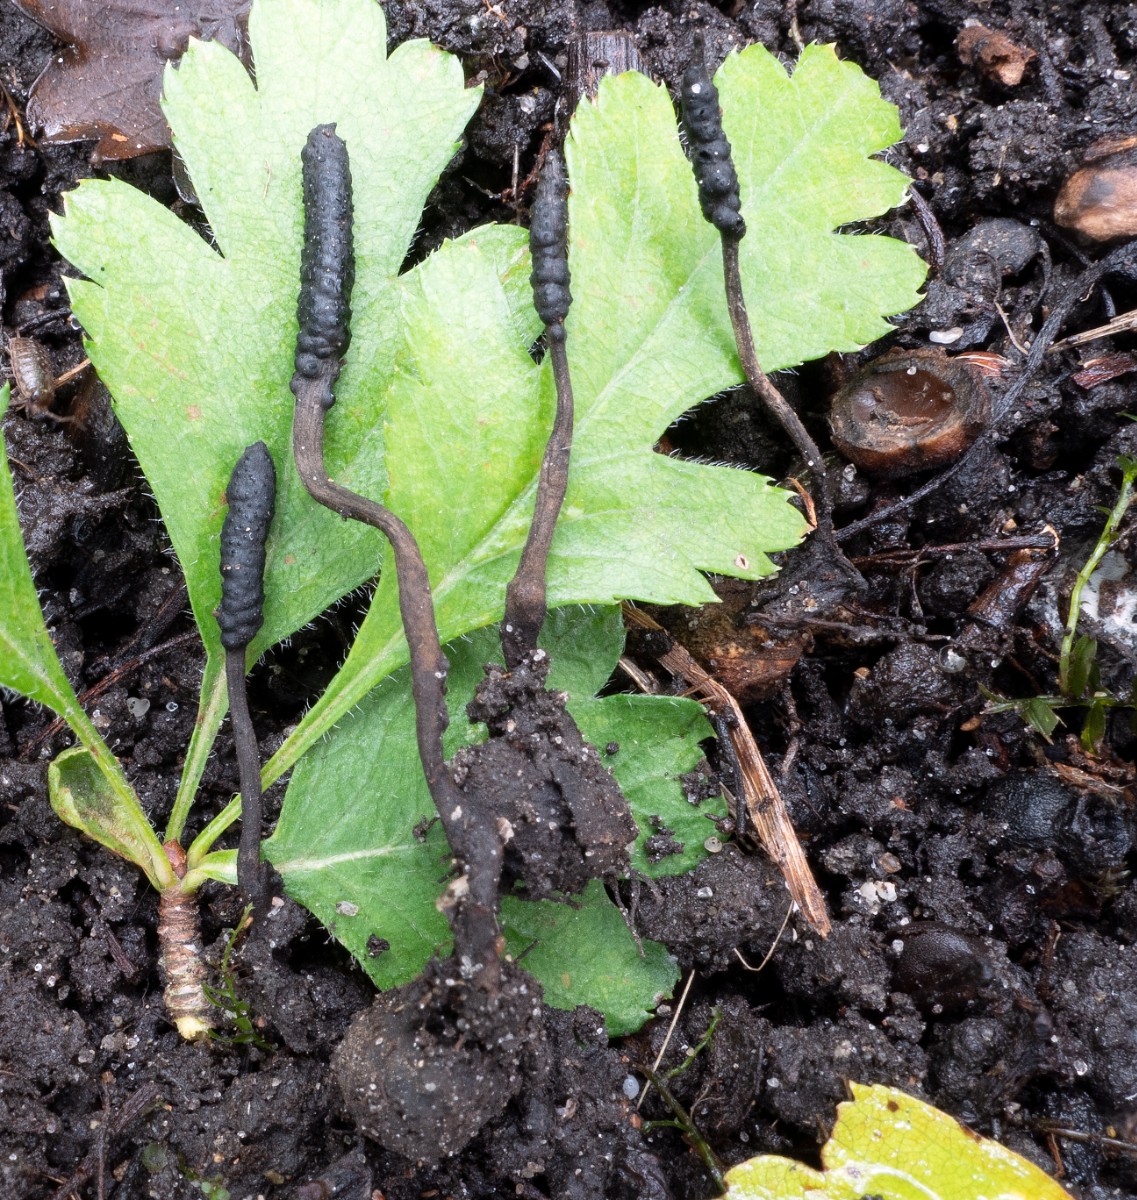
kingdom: Fungi
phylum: Ascomycota
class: Sordariomycetes
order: Xylariales
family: Xylariaceae
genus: Xylaria
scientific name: Xylaria oxyacanthae
